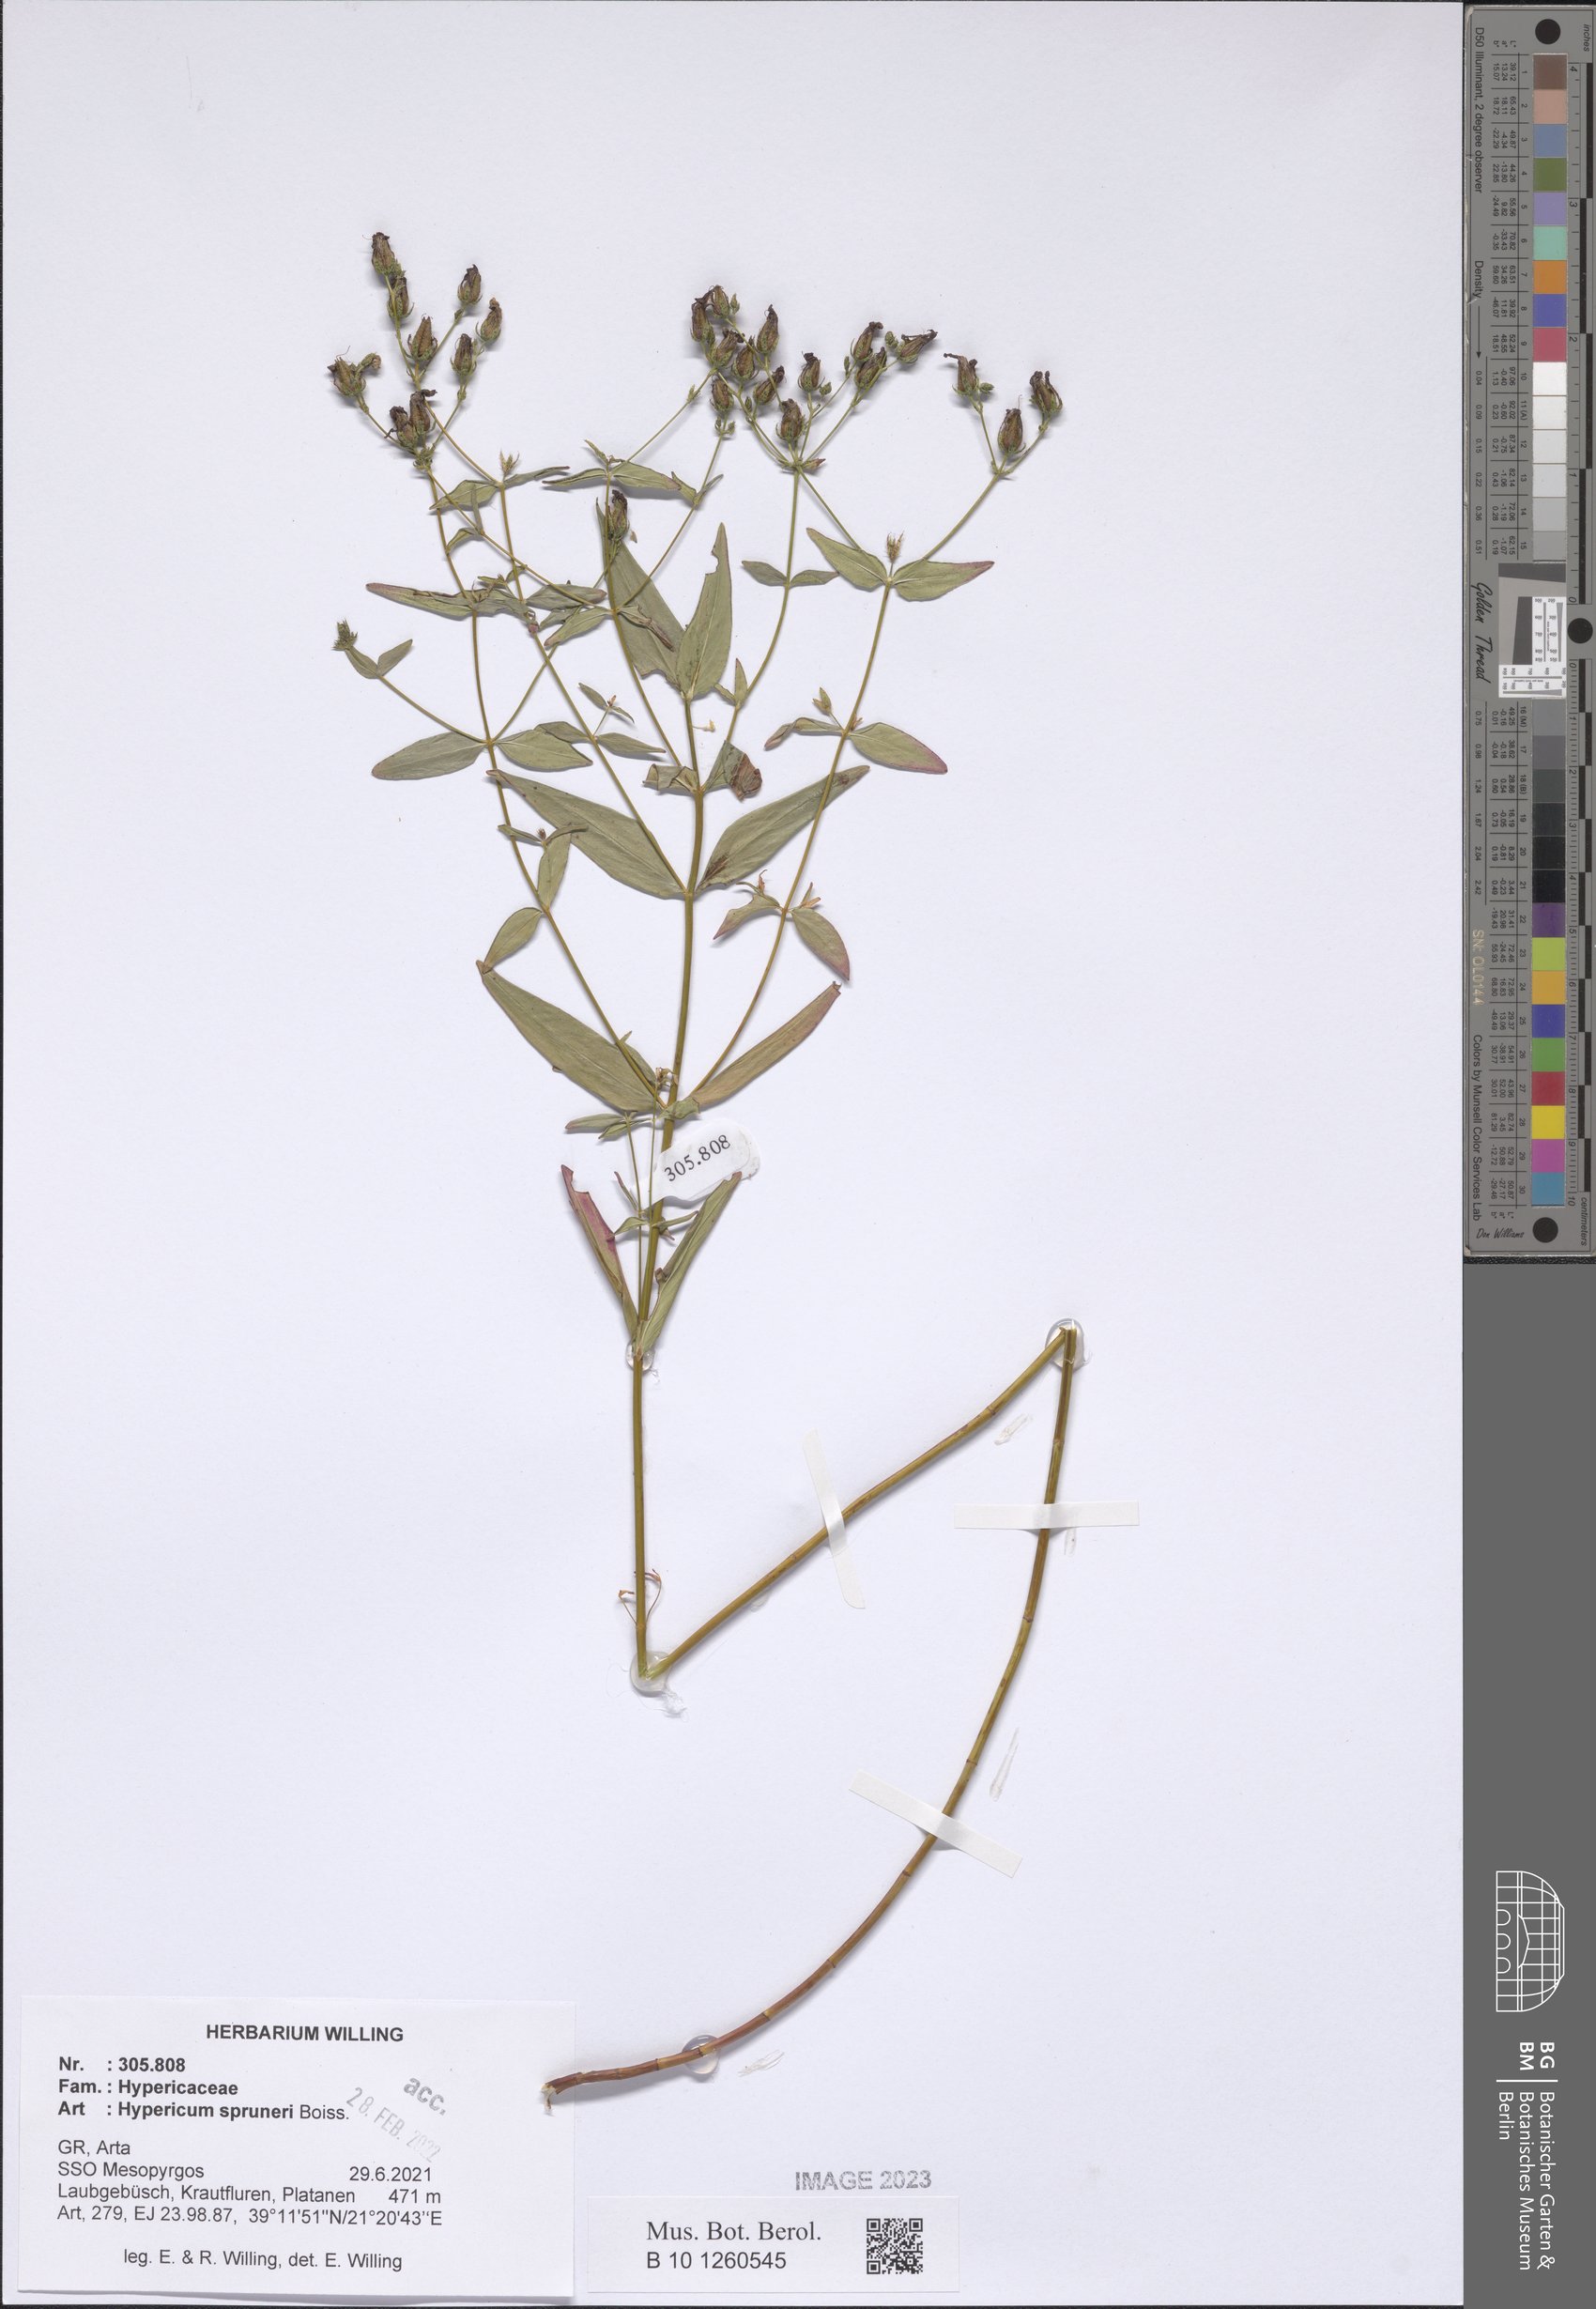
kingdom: Plantae
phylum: Tracheophyta
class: Magnoliopsida
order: Malpighiales
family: Hypericaceae
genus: Hypericum
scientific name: Hypericum spruneri
